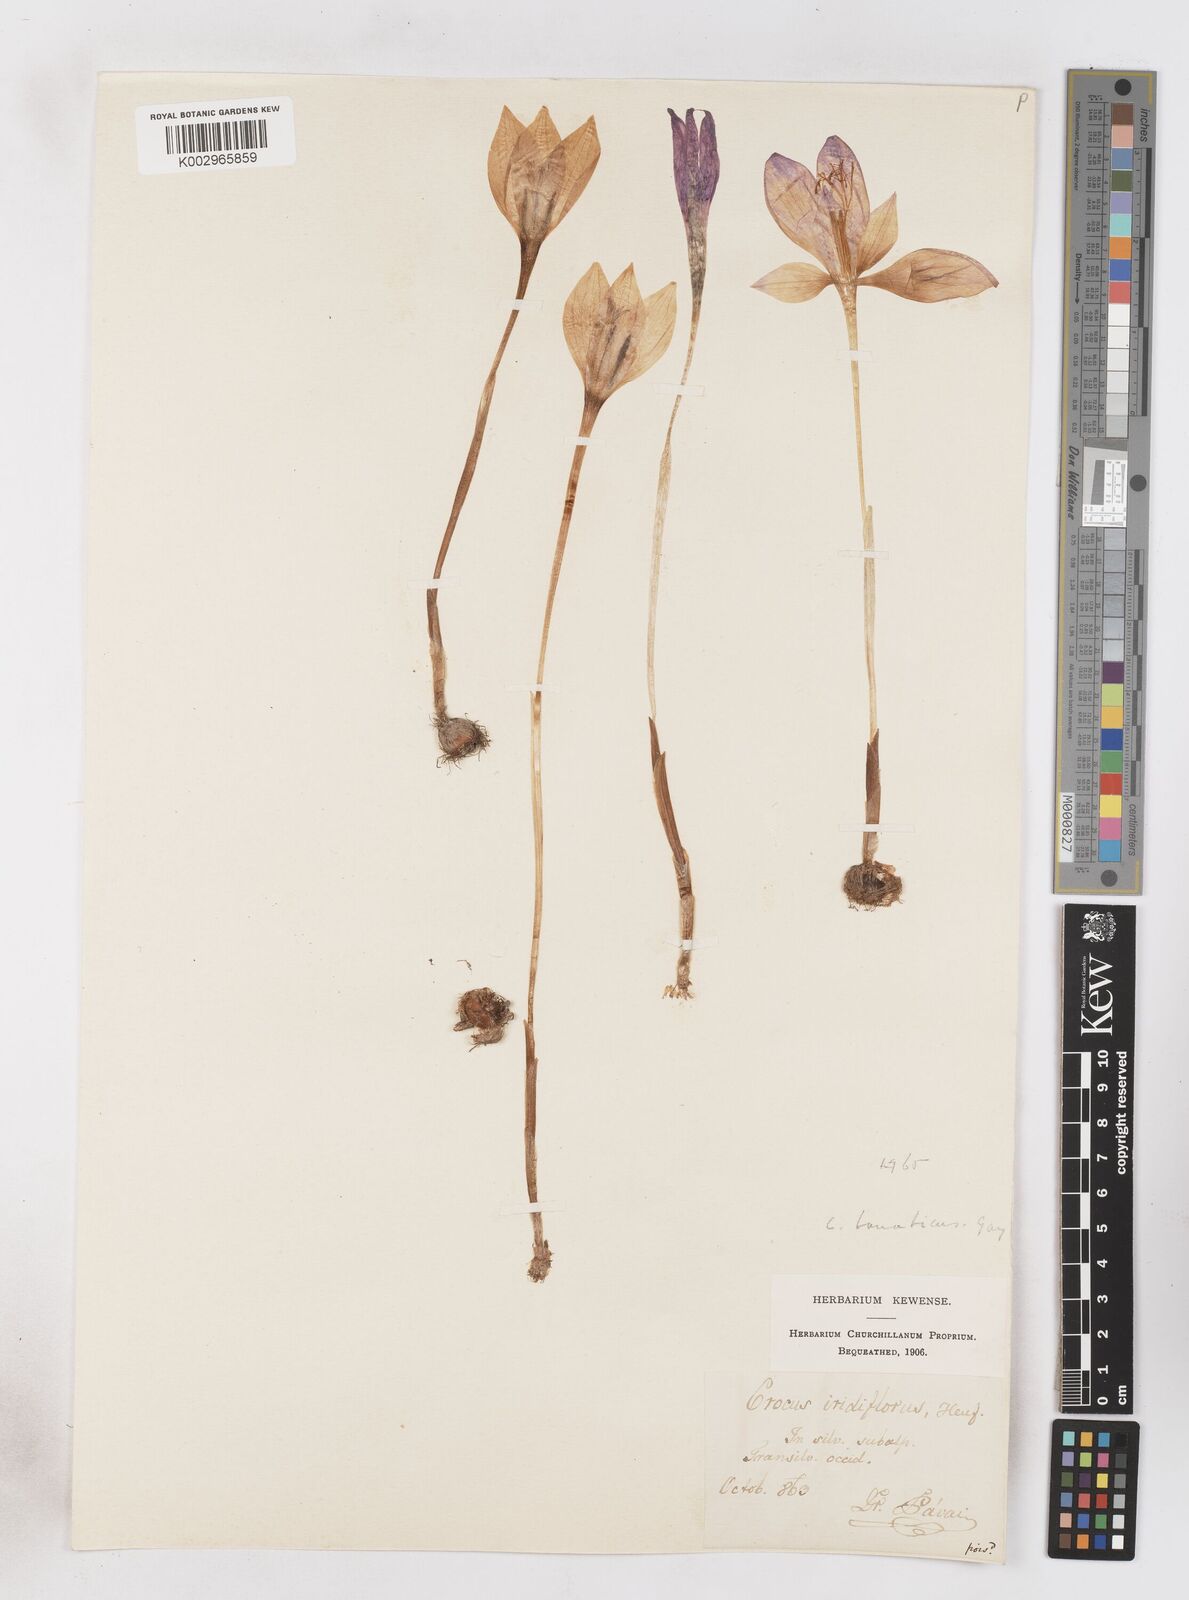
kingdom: Plantae
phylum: Tracheophyta
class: Liliopsida
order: Asparagales
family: Iridaceae
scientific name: Iridaceae
